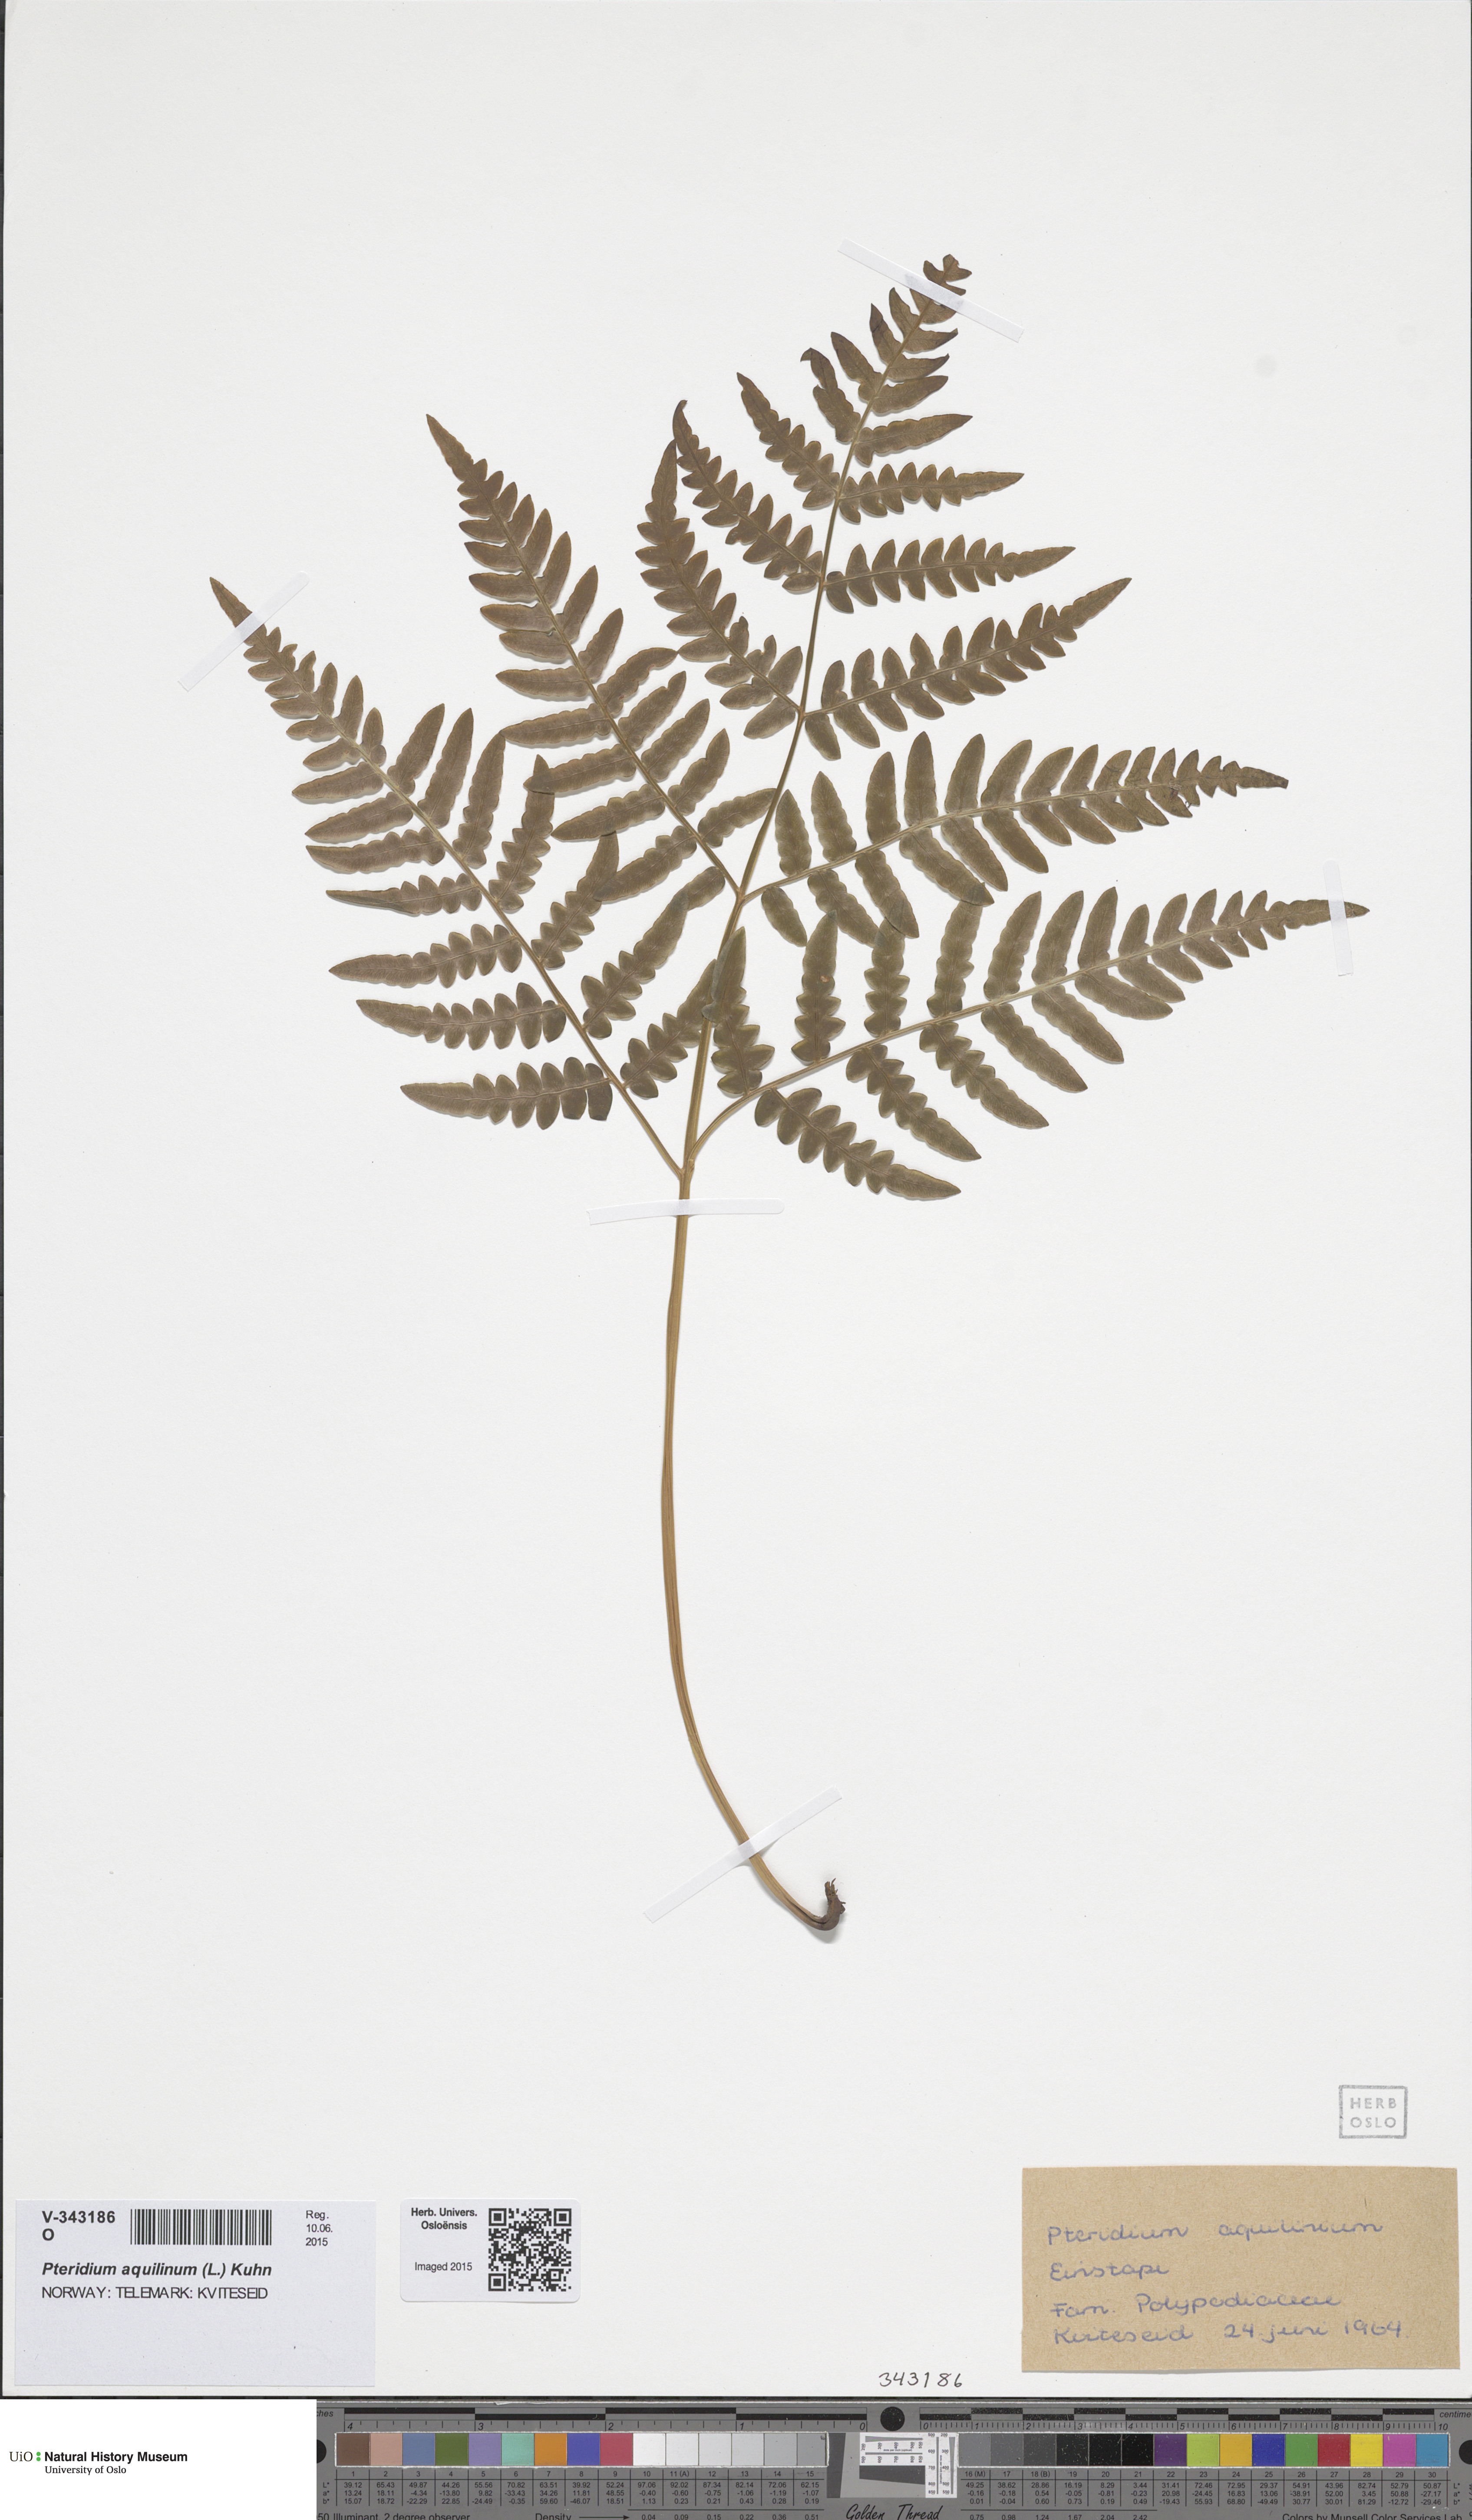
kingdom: Plantae
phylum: Tracheophyta
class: Polypodiopsida
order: Polypodiales
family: Dennstaedtiaceae
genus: Pteridium
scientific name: Pteridium aquilinum
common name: Bracken
